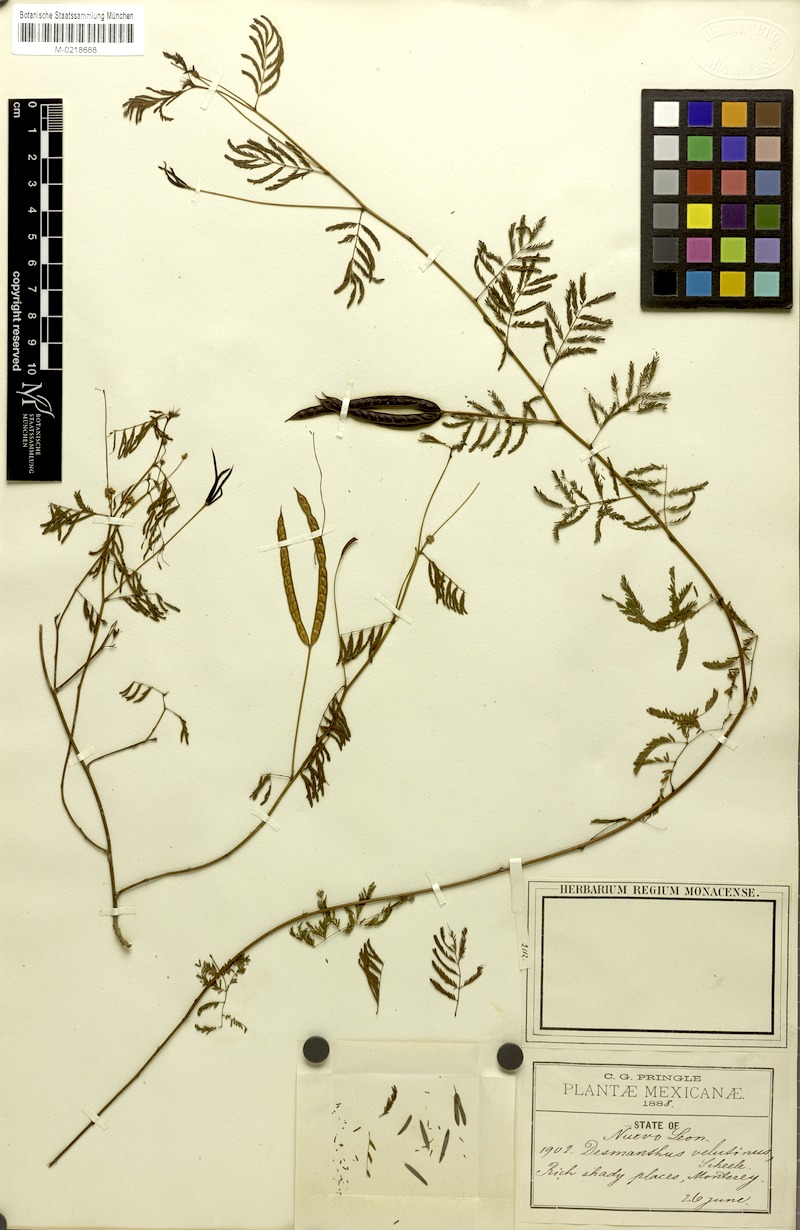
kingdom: Plantae
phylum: Tracheophyta
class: Magnoliopsida
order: Fabales
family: Fabaceae
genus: Desmanthus
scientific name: Desmanthus pringlei
